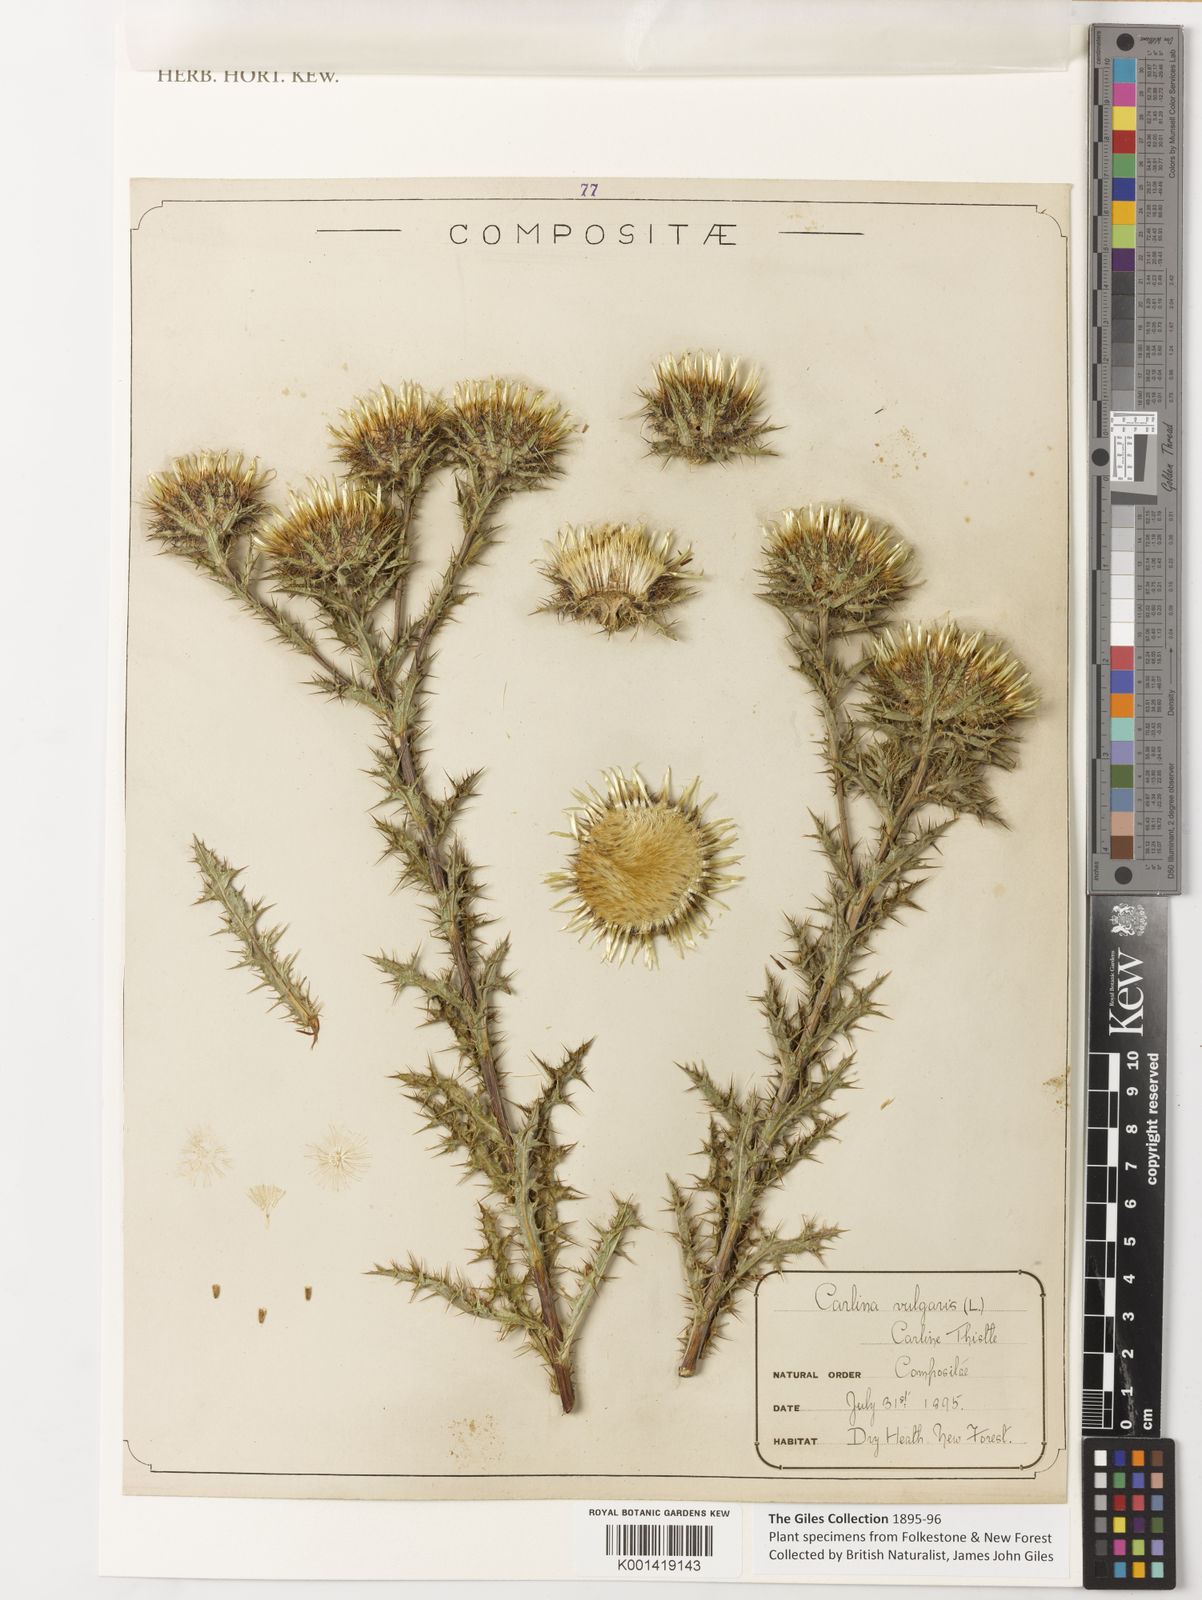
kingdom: Plantae
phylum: Tracheophyta
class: Magnoliopsida
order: Asterales
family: Asteraceae
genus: Carlina
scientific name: Carlina vulgaris
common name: Carline thistle
